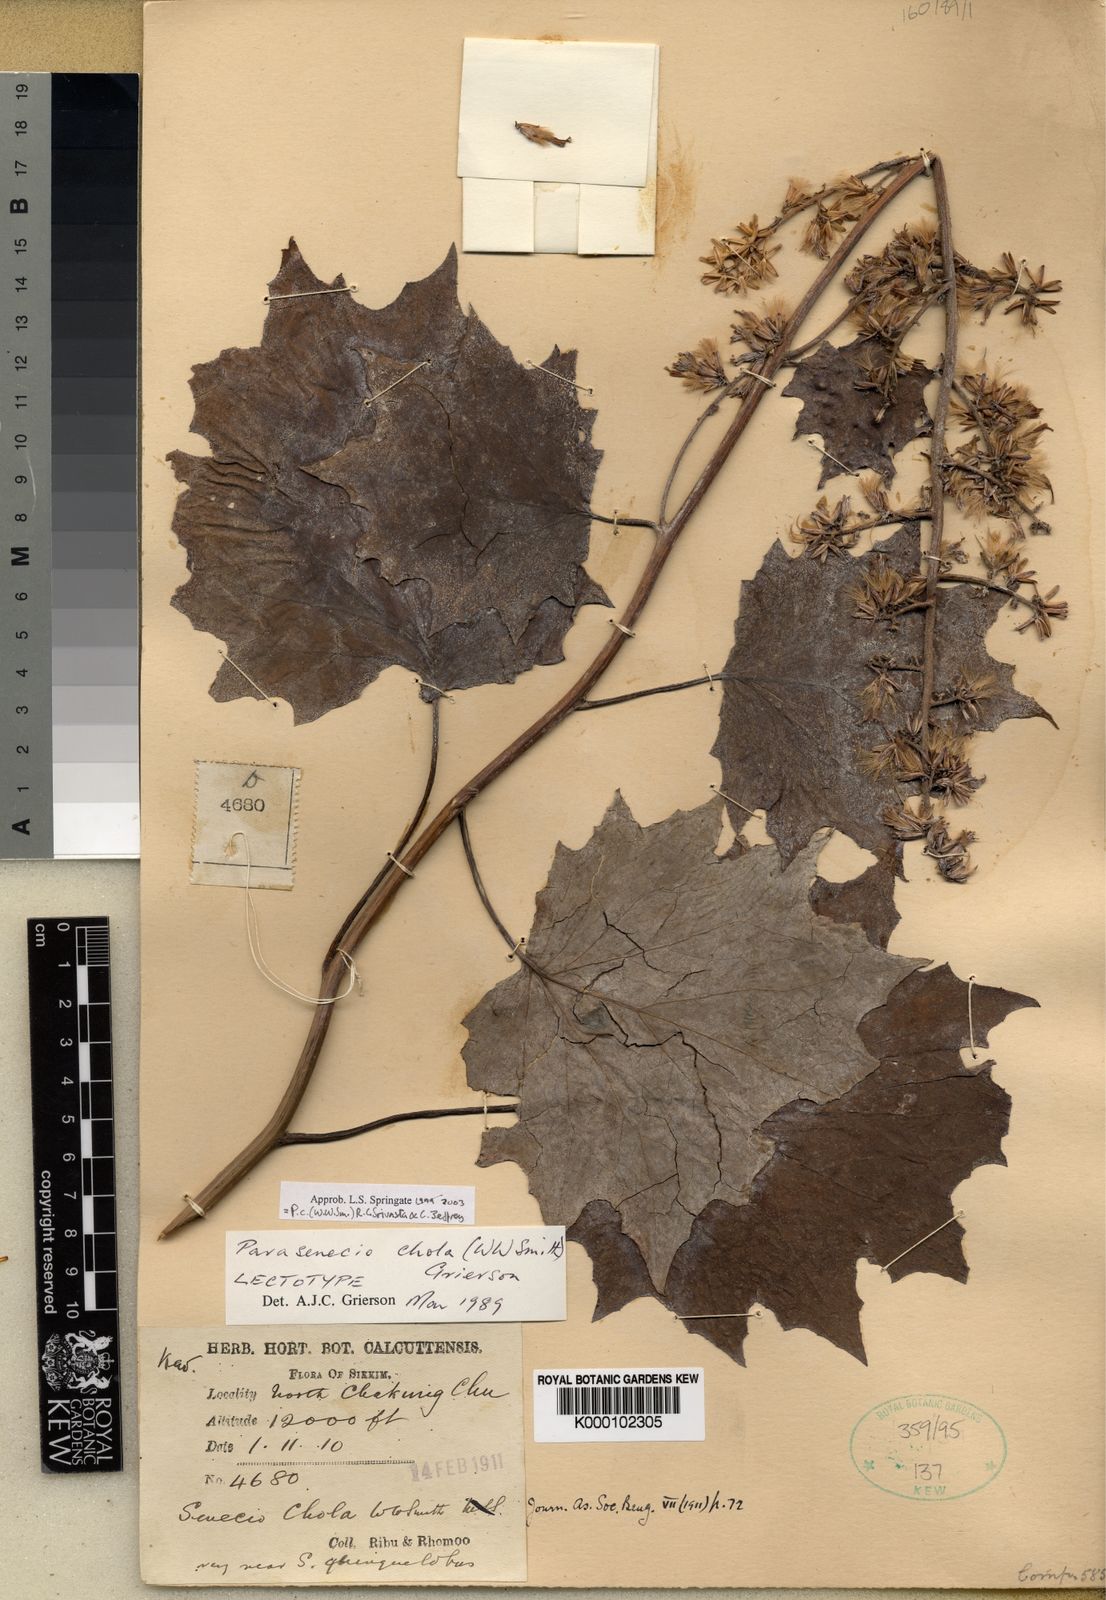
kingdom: Plantae
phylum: Tracheophyta
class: Magnoliopsida
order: Asterales
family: Asteraceae
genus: Parasenecio
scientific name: Parasenecio
